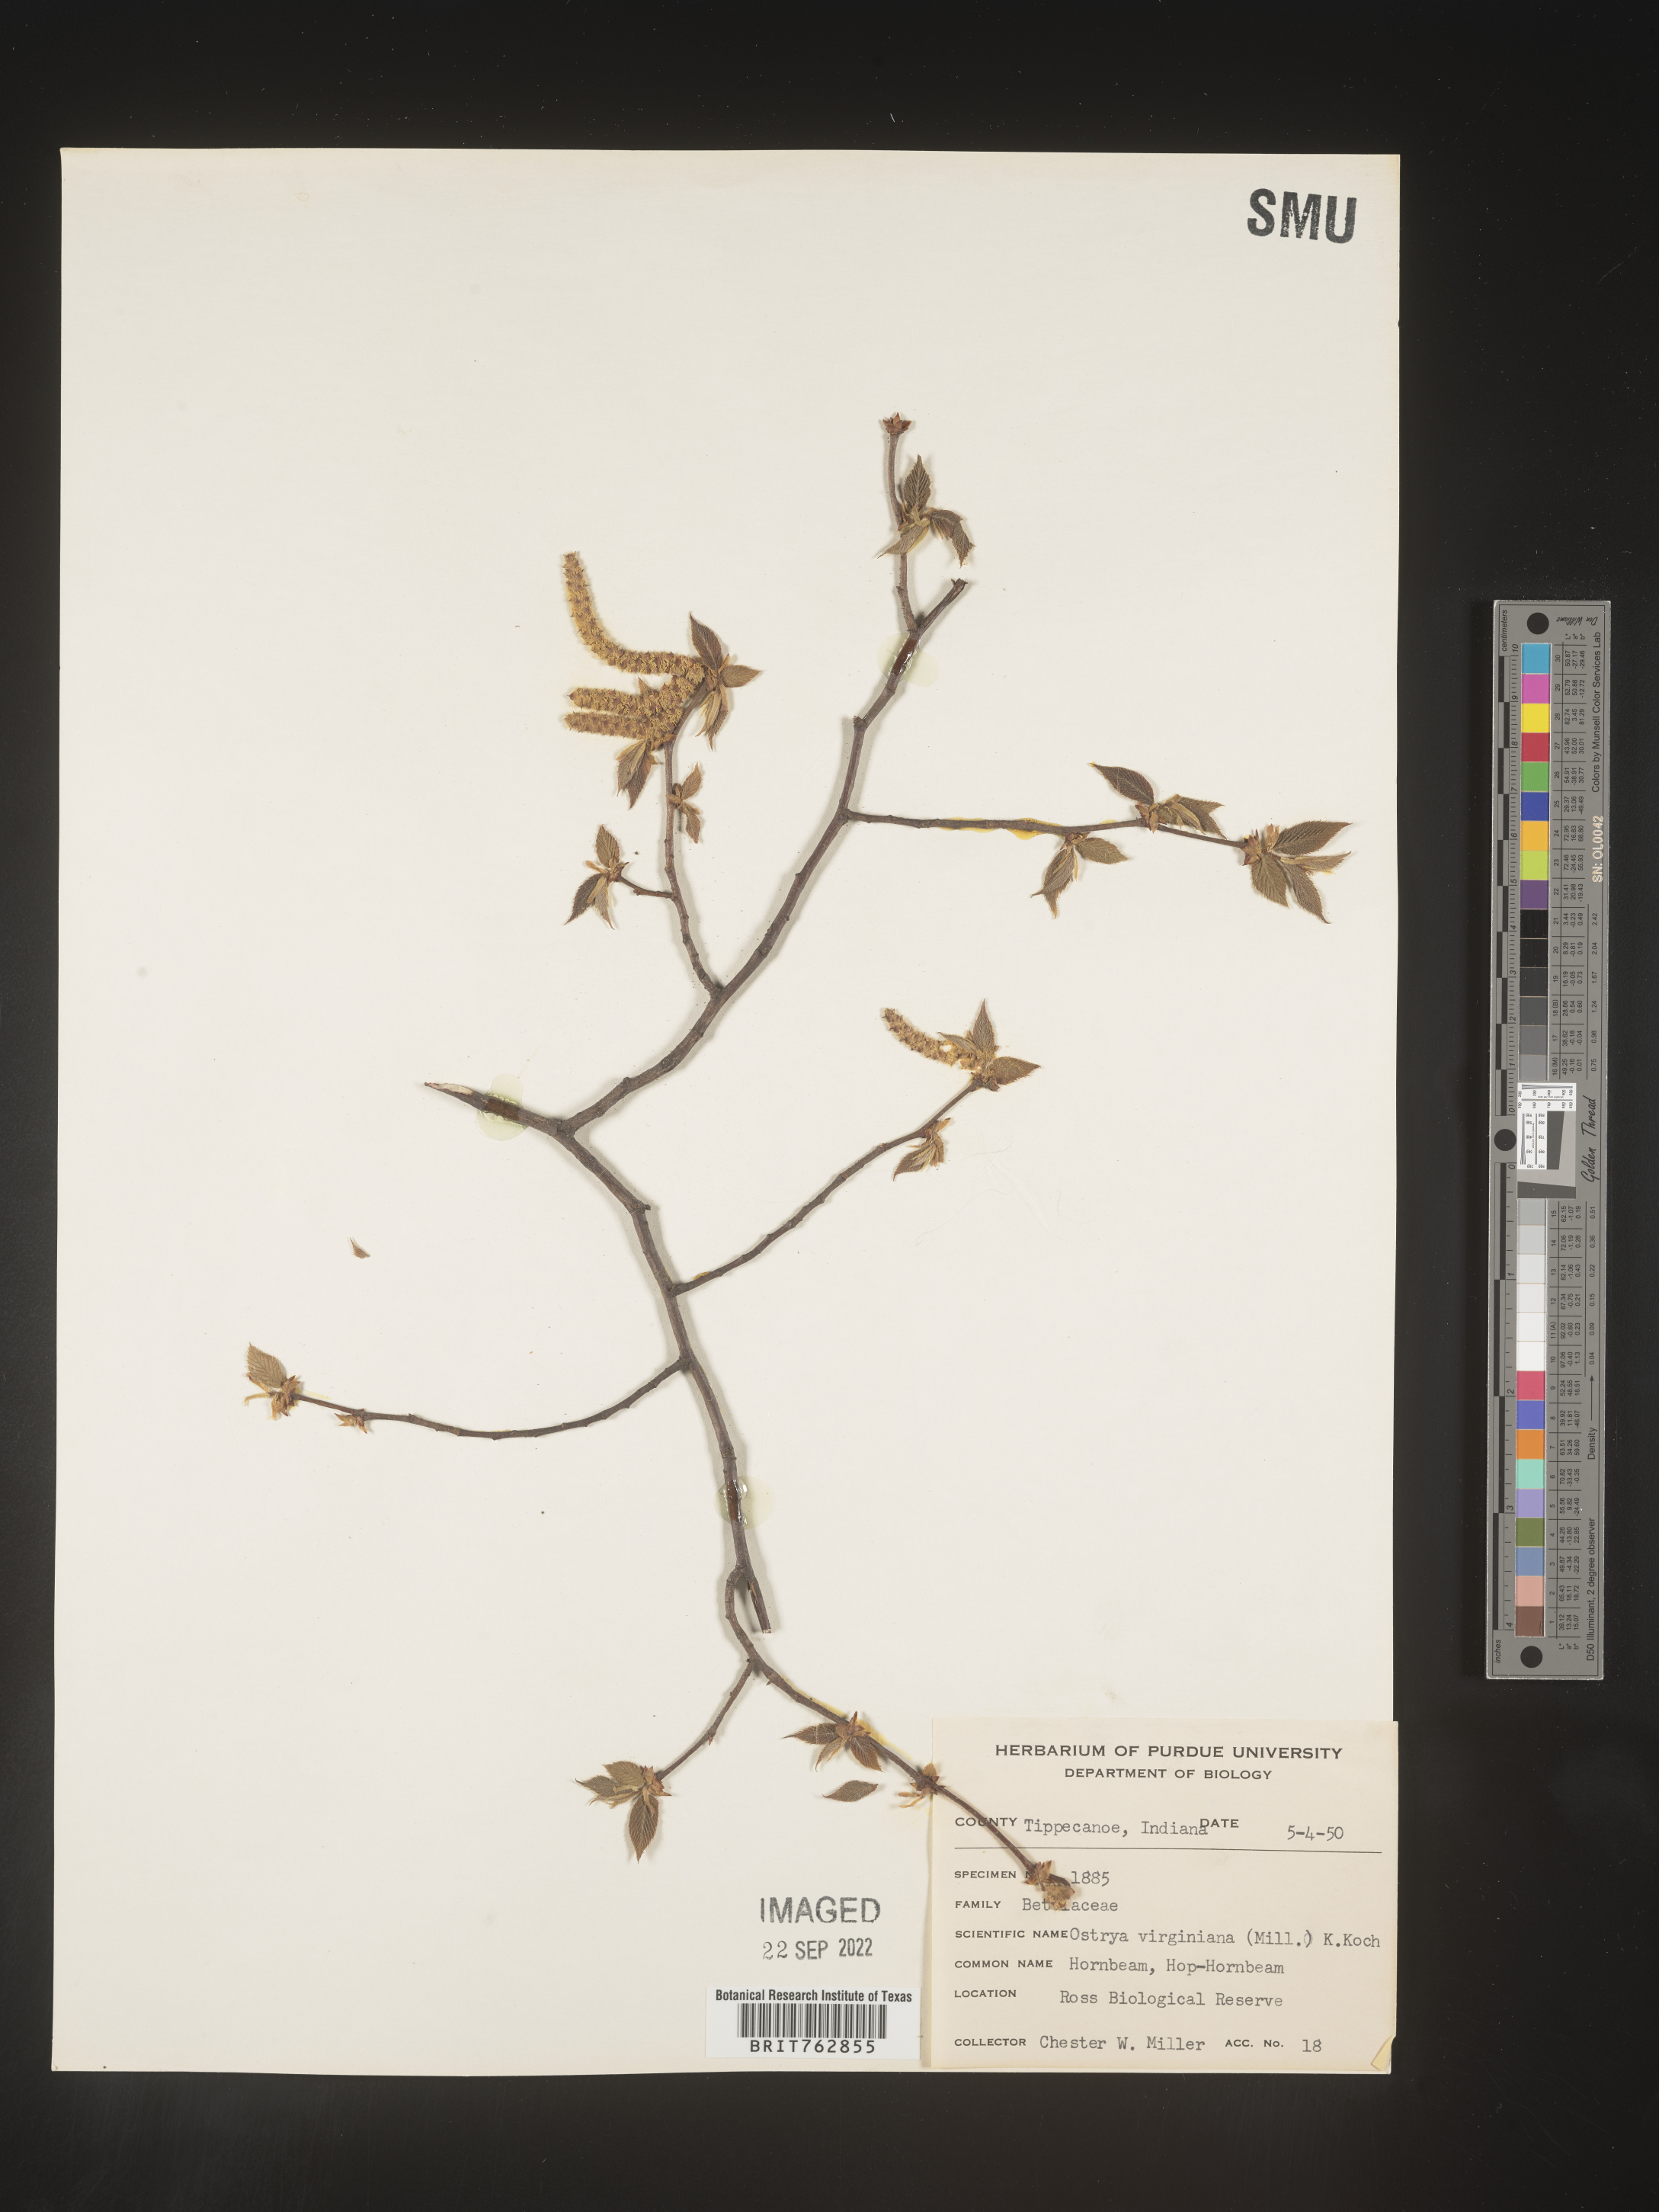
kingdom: Plantae
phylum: Tracheophyta
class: Magnoliopsida
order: Fagales
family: Betulaceae
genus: Ostrya
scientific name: Ostrya virginiana
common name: Ironwood
